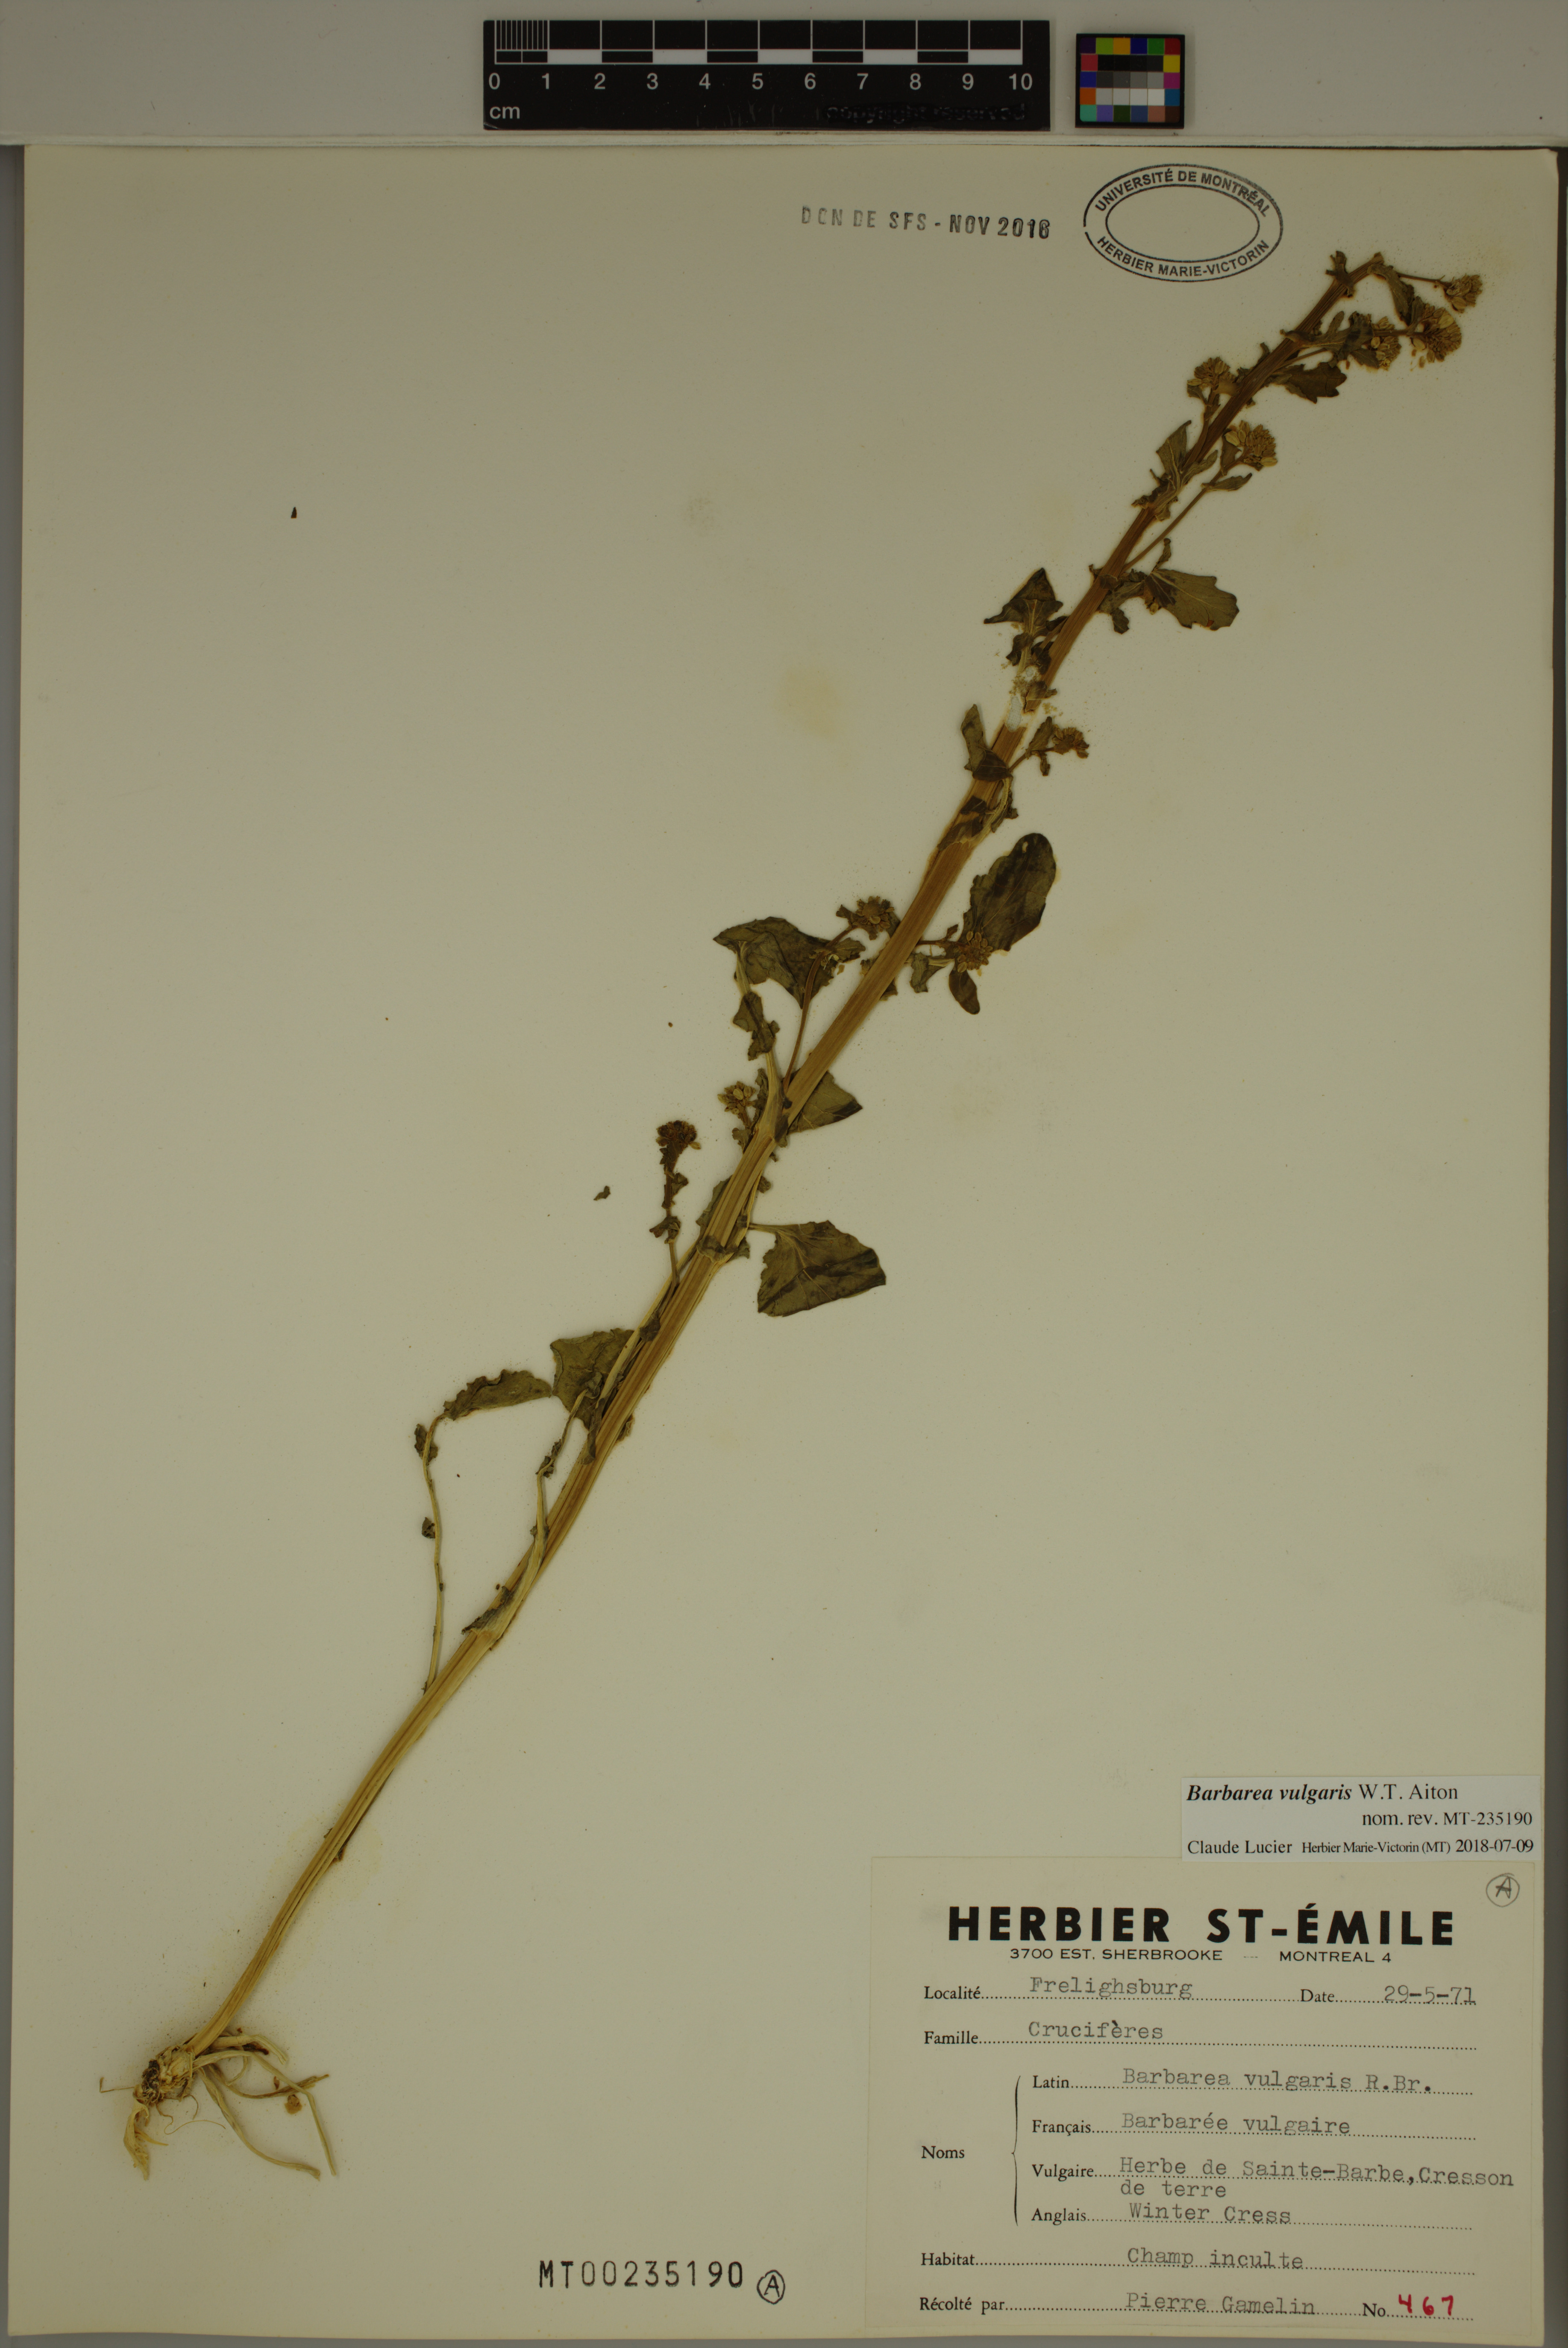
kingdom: Plantae
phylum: Tracheophyta
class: Magnoliopsida
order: Brassicales
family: Brassicaceae
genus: Barbarea
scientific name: Barbarea vulgaris
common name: Cressy-greens
